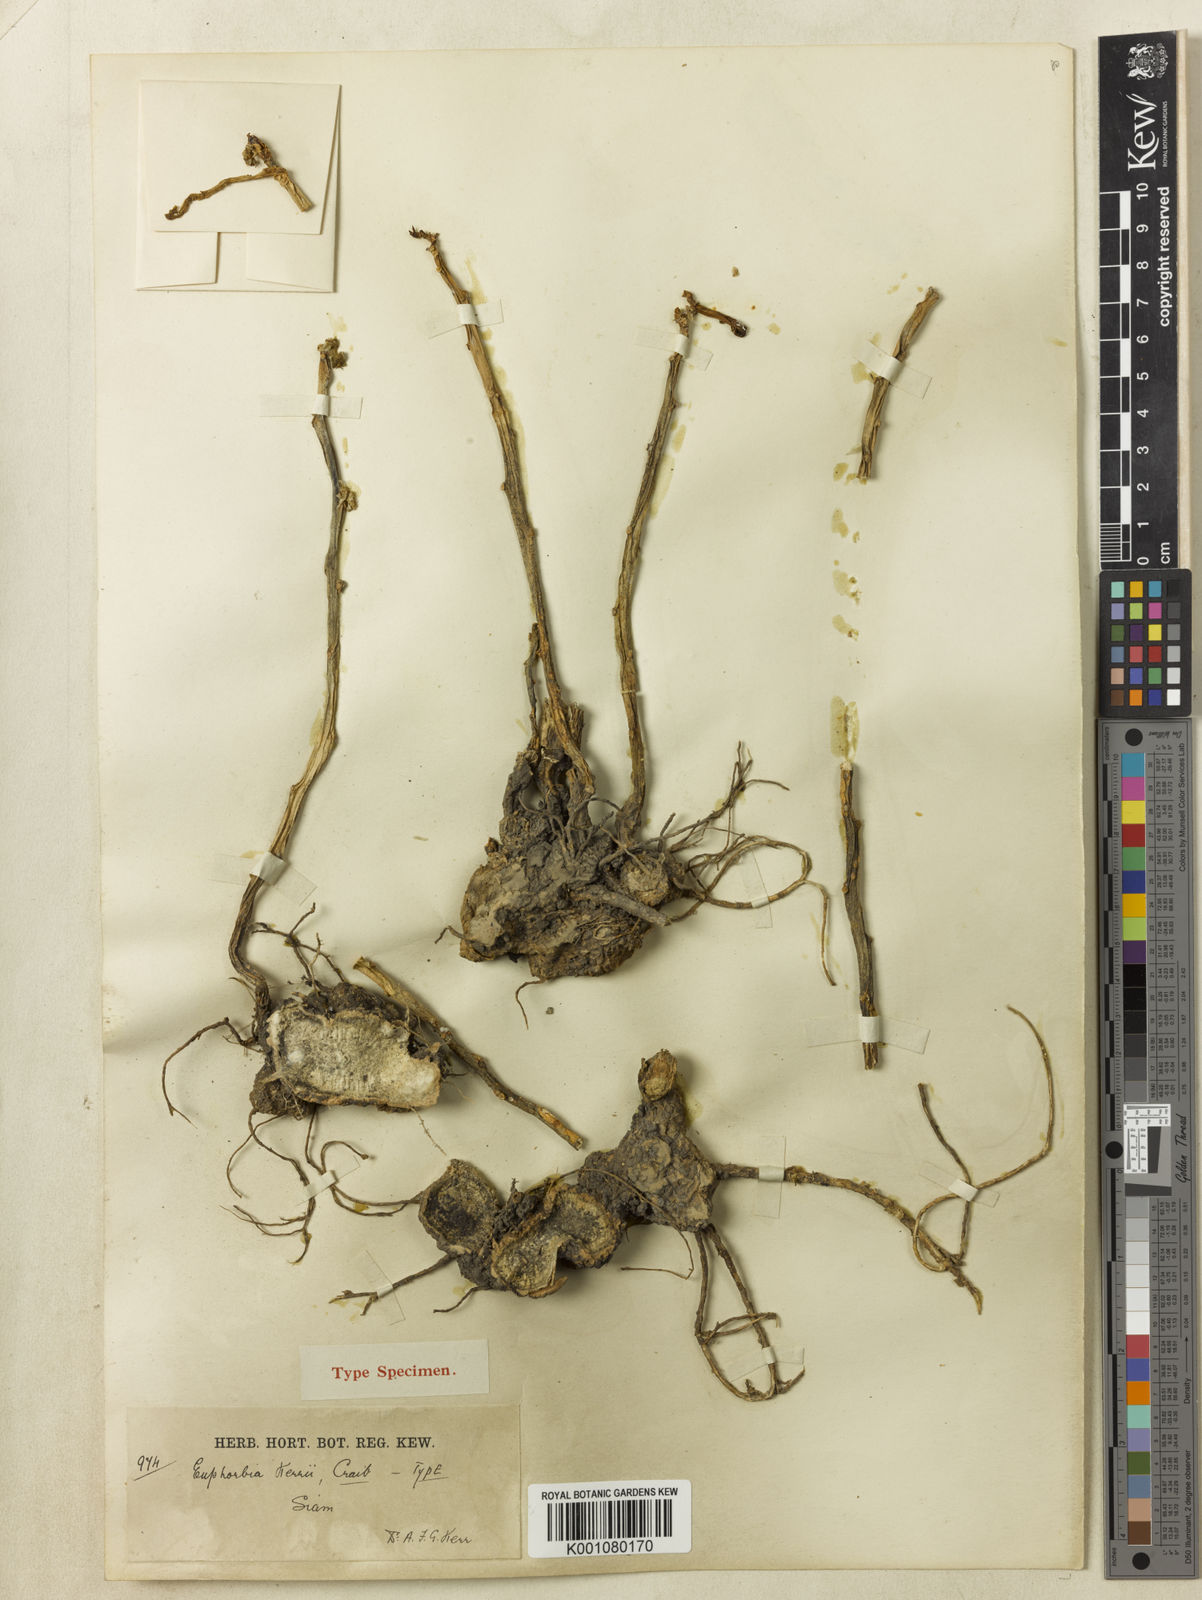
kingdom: Plantae
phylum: Tracheophyta
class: Magnoliopsida
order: Malpighiales
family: Euphorbiaceae
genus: Euphorbia
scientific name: Euphorbia sessiliflora
